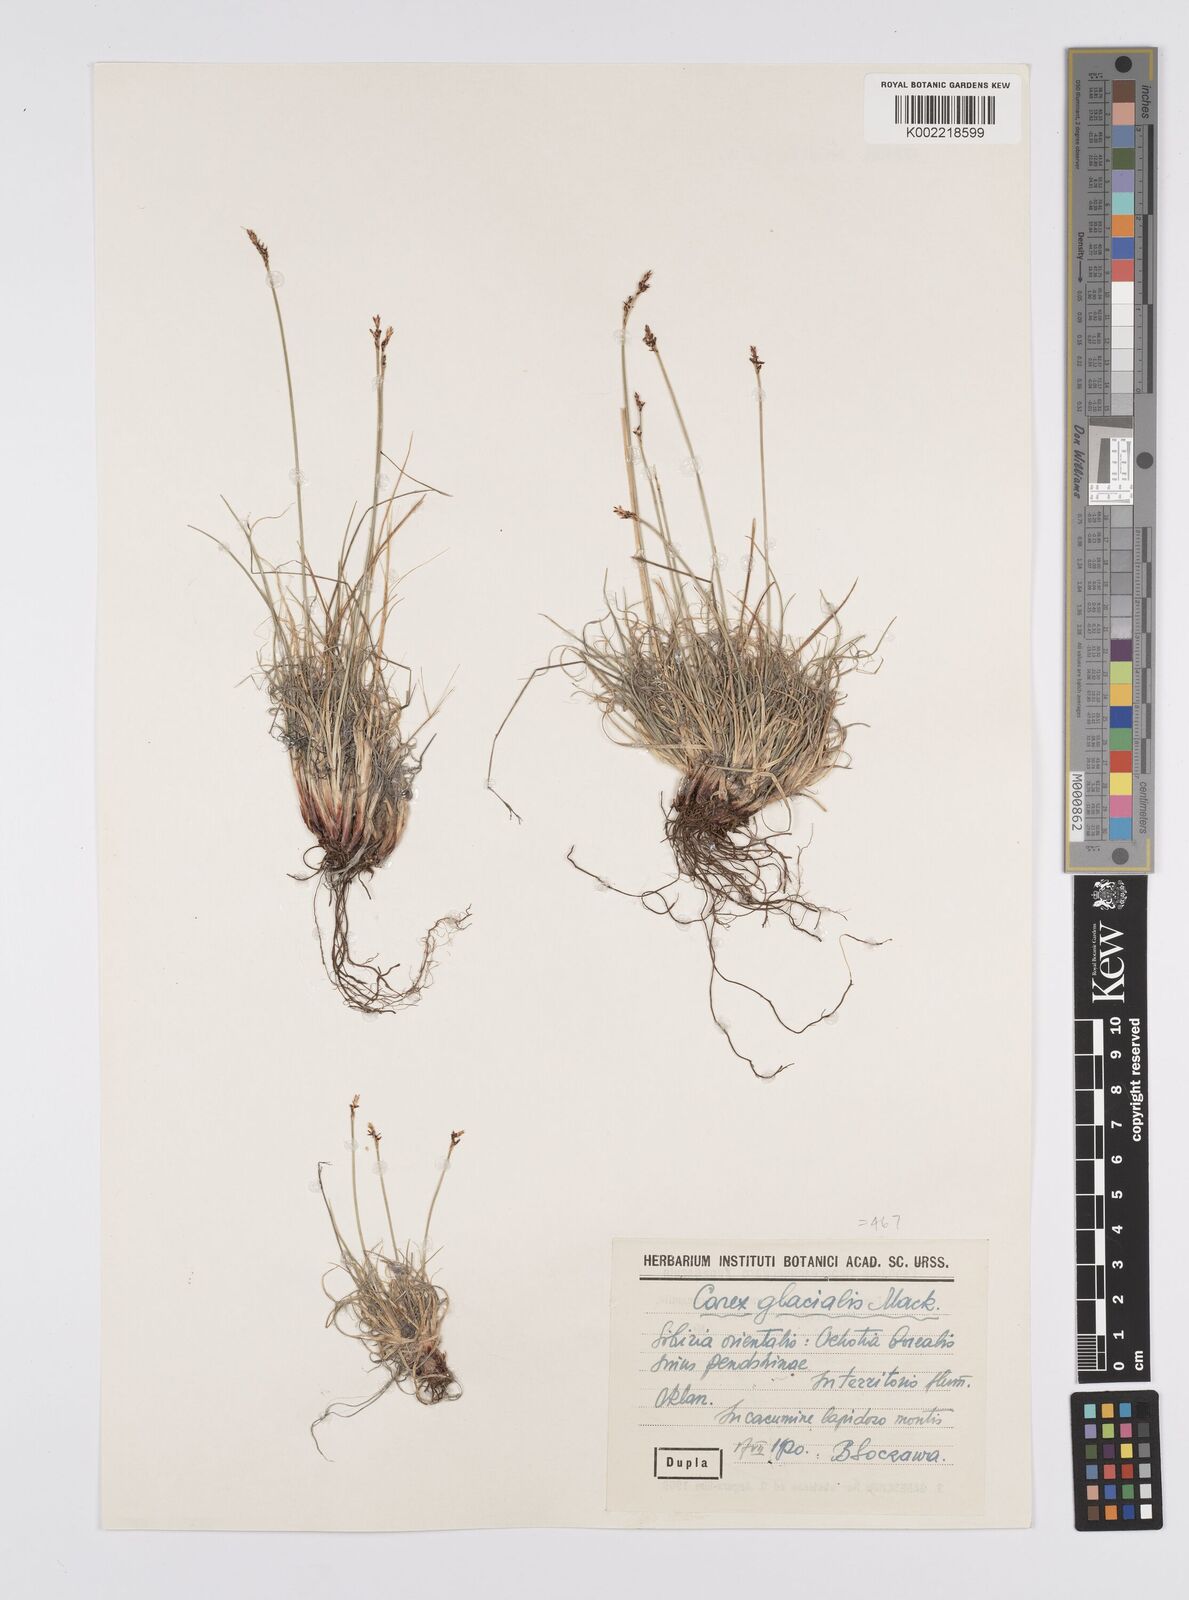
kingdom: Plantae
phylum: Tracheophyta
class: Liliopsida
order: Poales
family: Cyperaceae
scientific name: Cyperaceae
